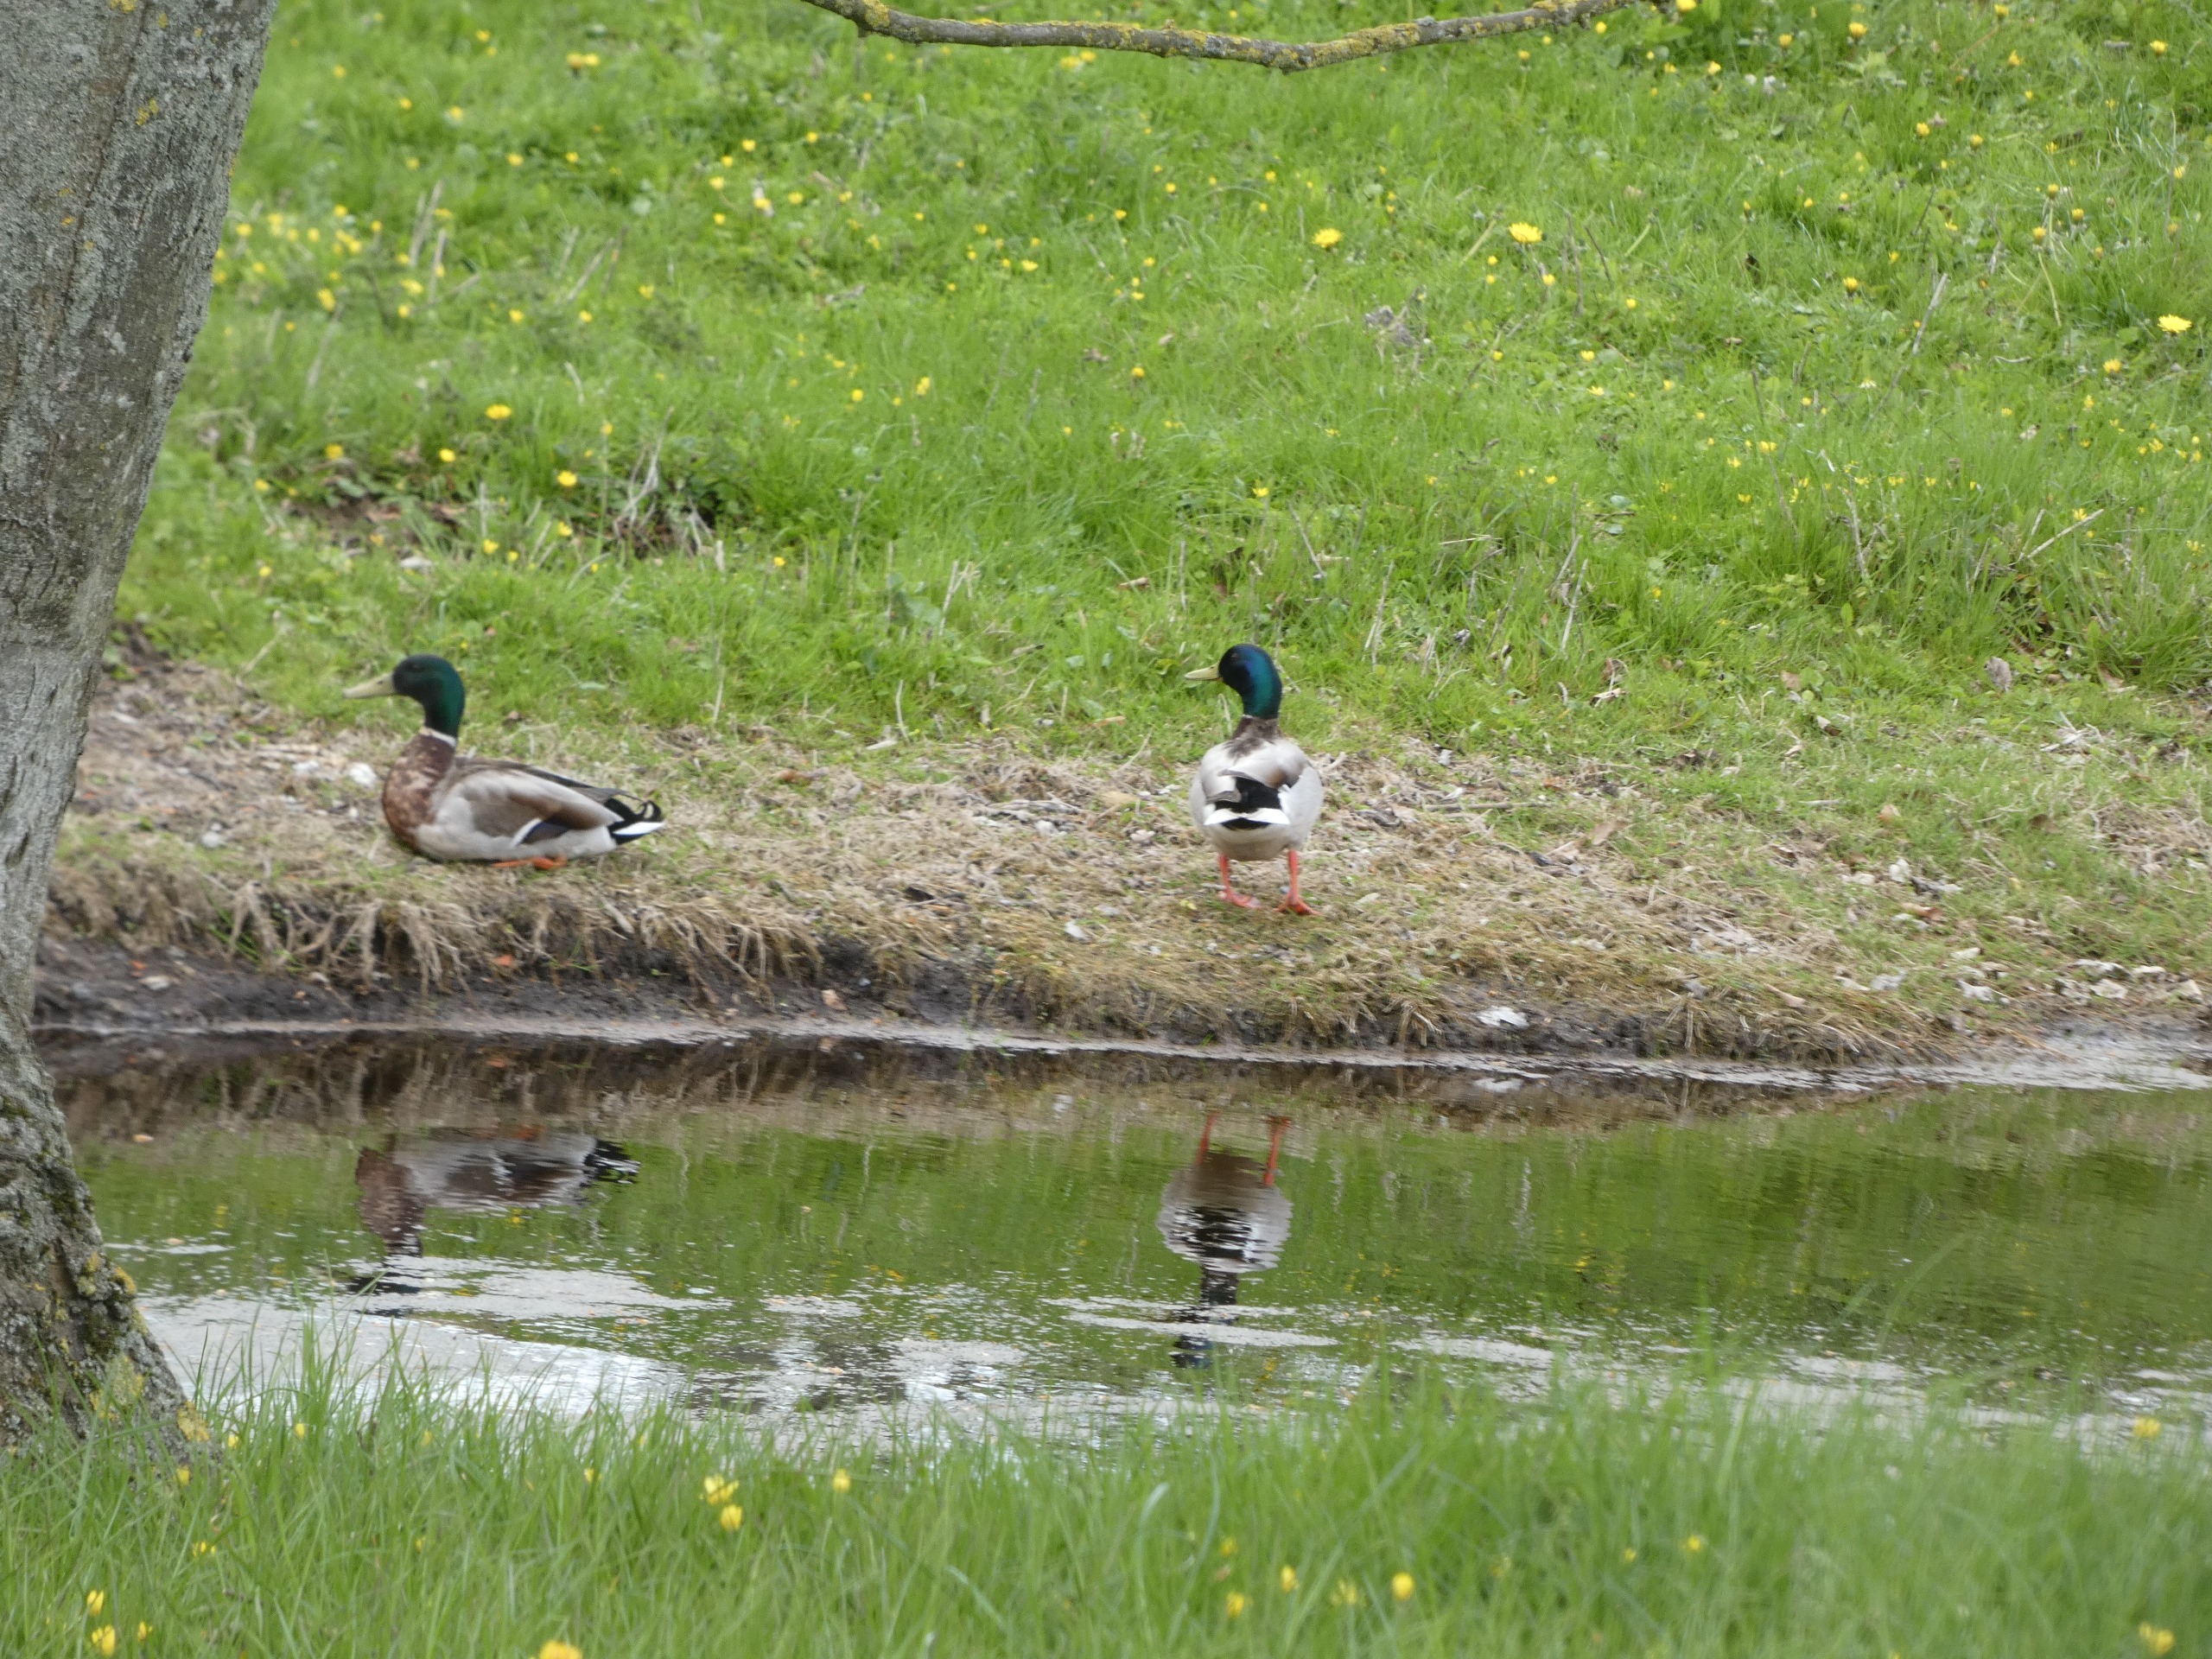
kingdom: Animalia
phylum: Chordata
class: Aves
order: Anseriformes
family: Anatidae
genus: Anas
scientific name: Anas platyrhynchos
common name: Gråand
